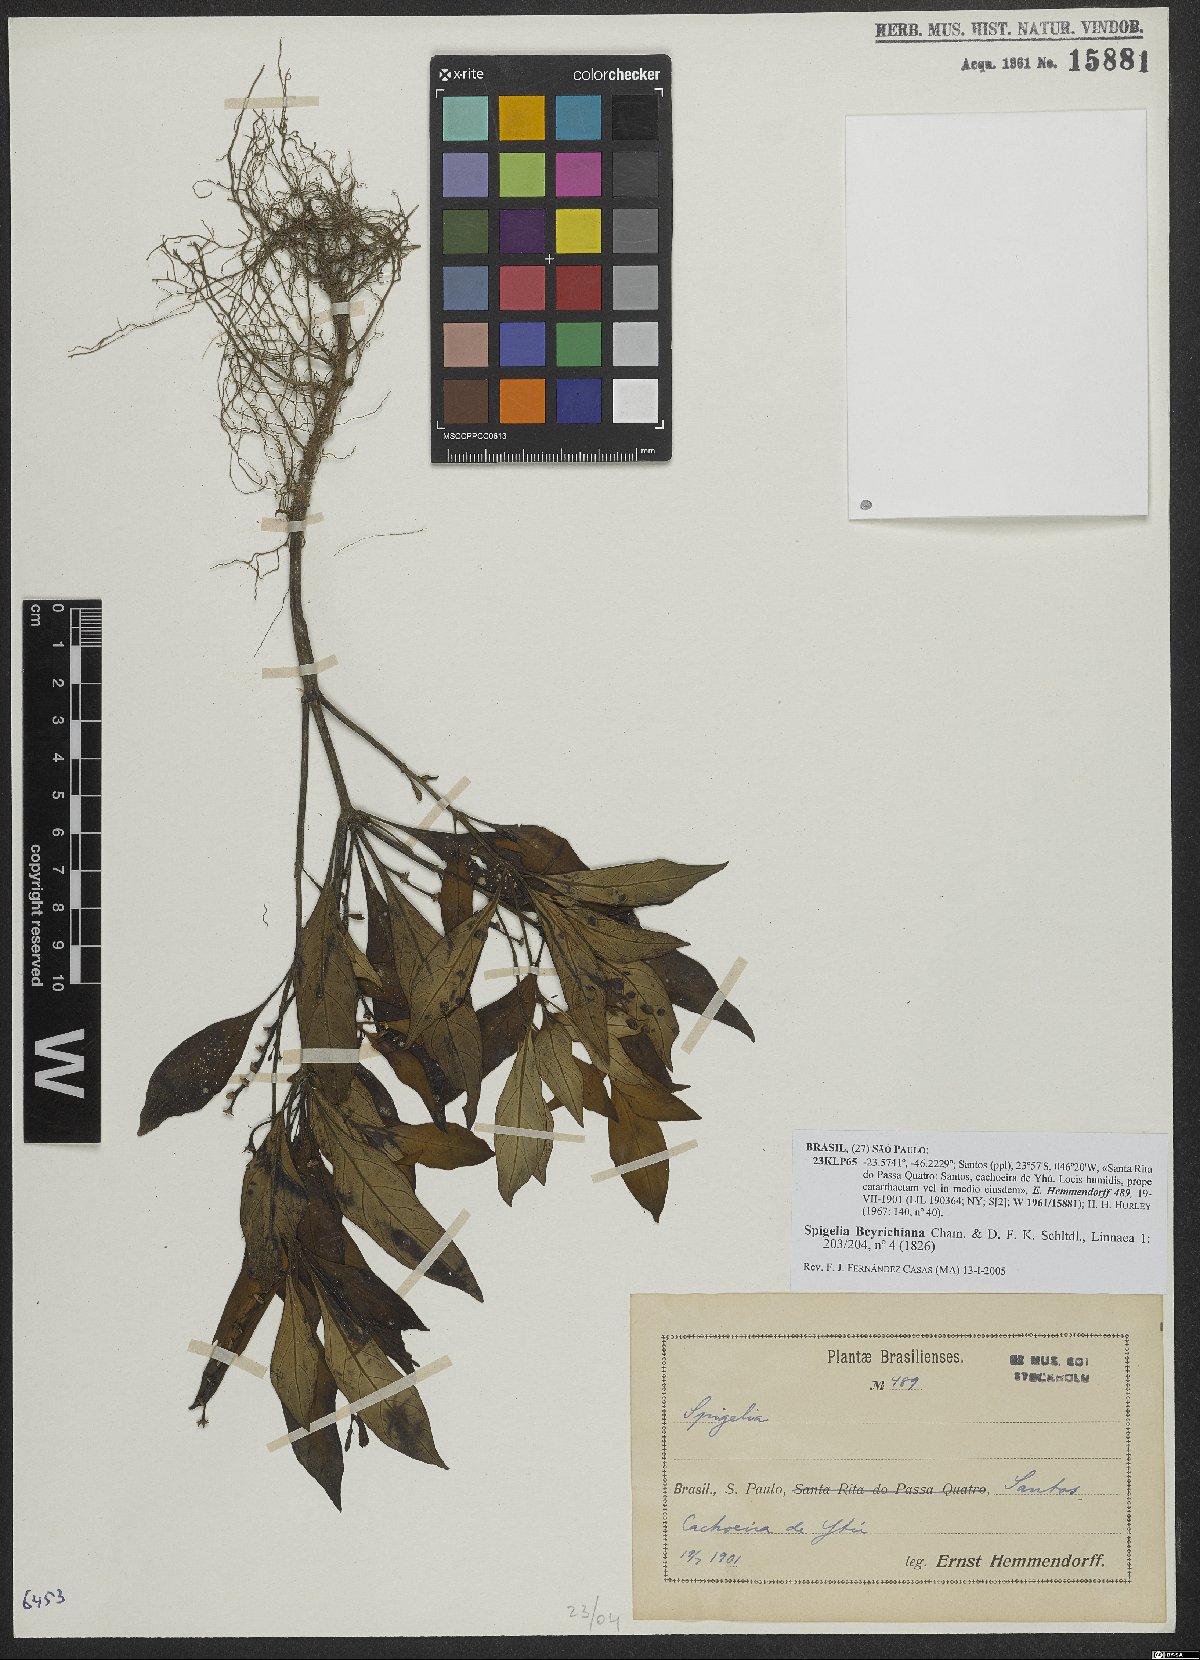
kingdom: Plantae
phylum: Tracheophyta
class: Magnoliopsida
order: Gentianales
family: Loganiaceae
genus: Spigelia
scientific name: Spigelia beyrichiana
